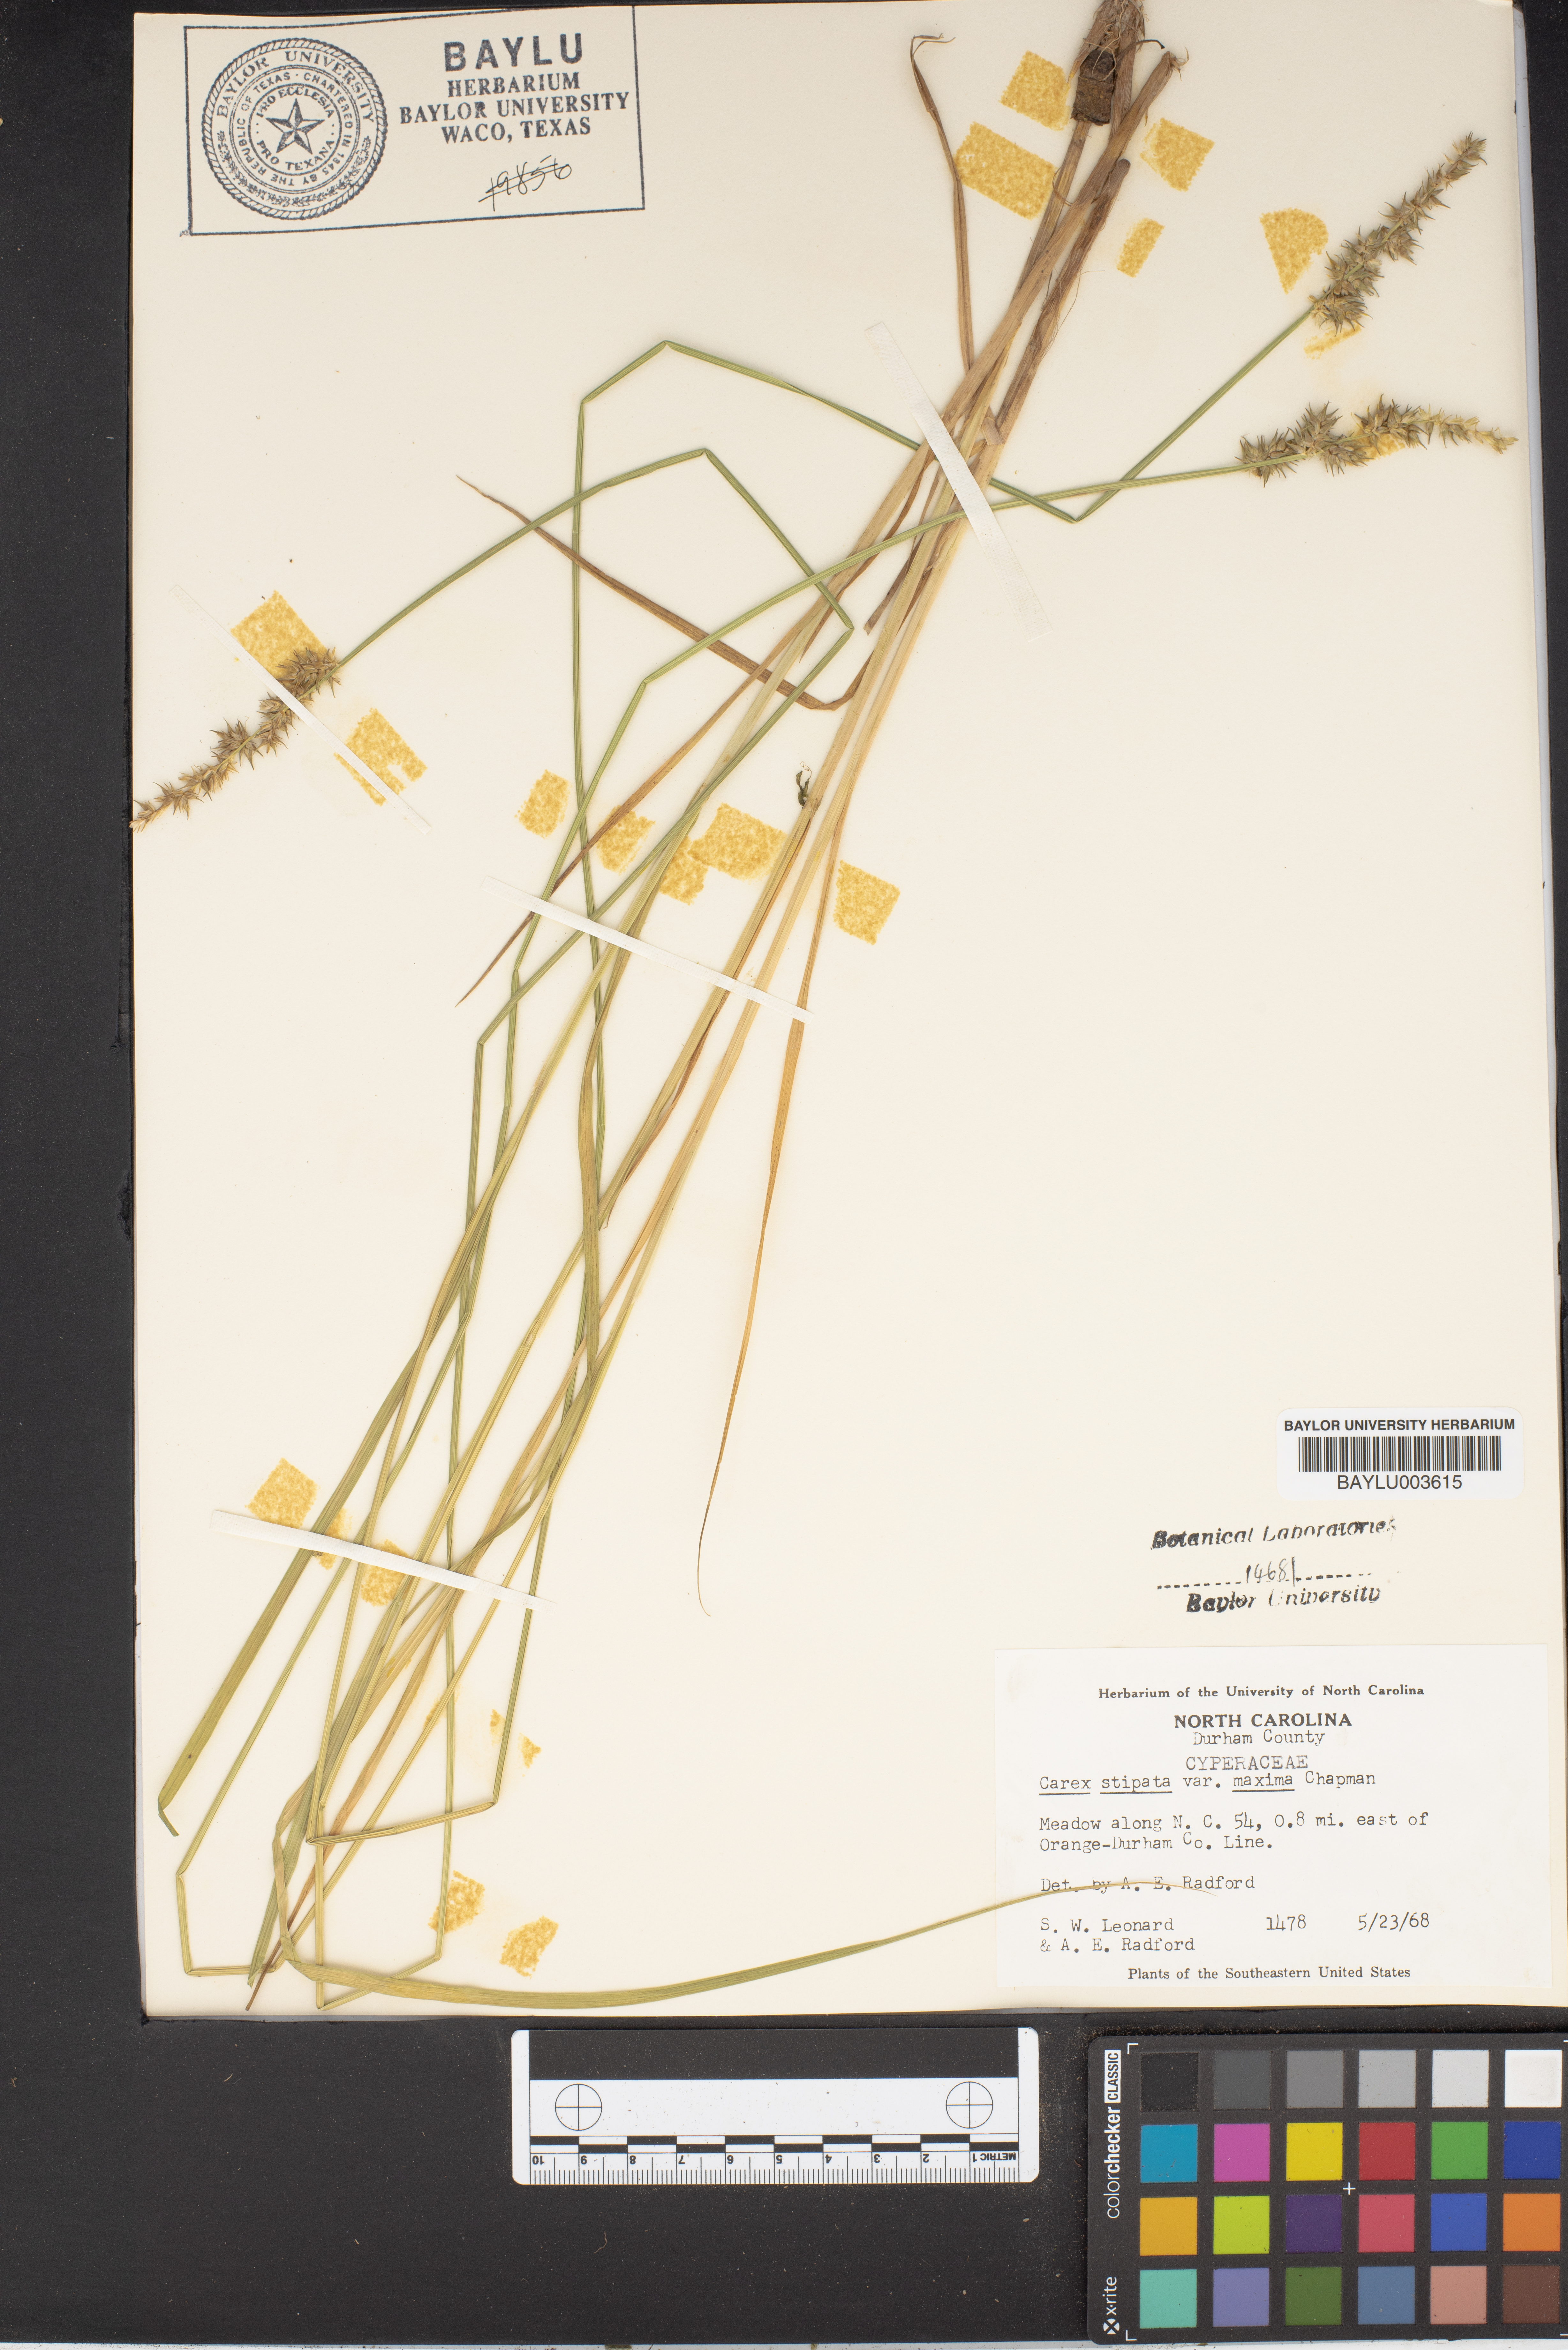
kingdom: Plantae
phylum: Tracheophyta
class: Liliopsida
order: Poales
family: Cyperaceae
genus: Carex
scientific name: Carex stipata
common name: Awl-fruited sedge
